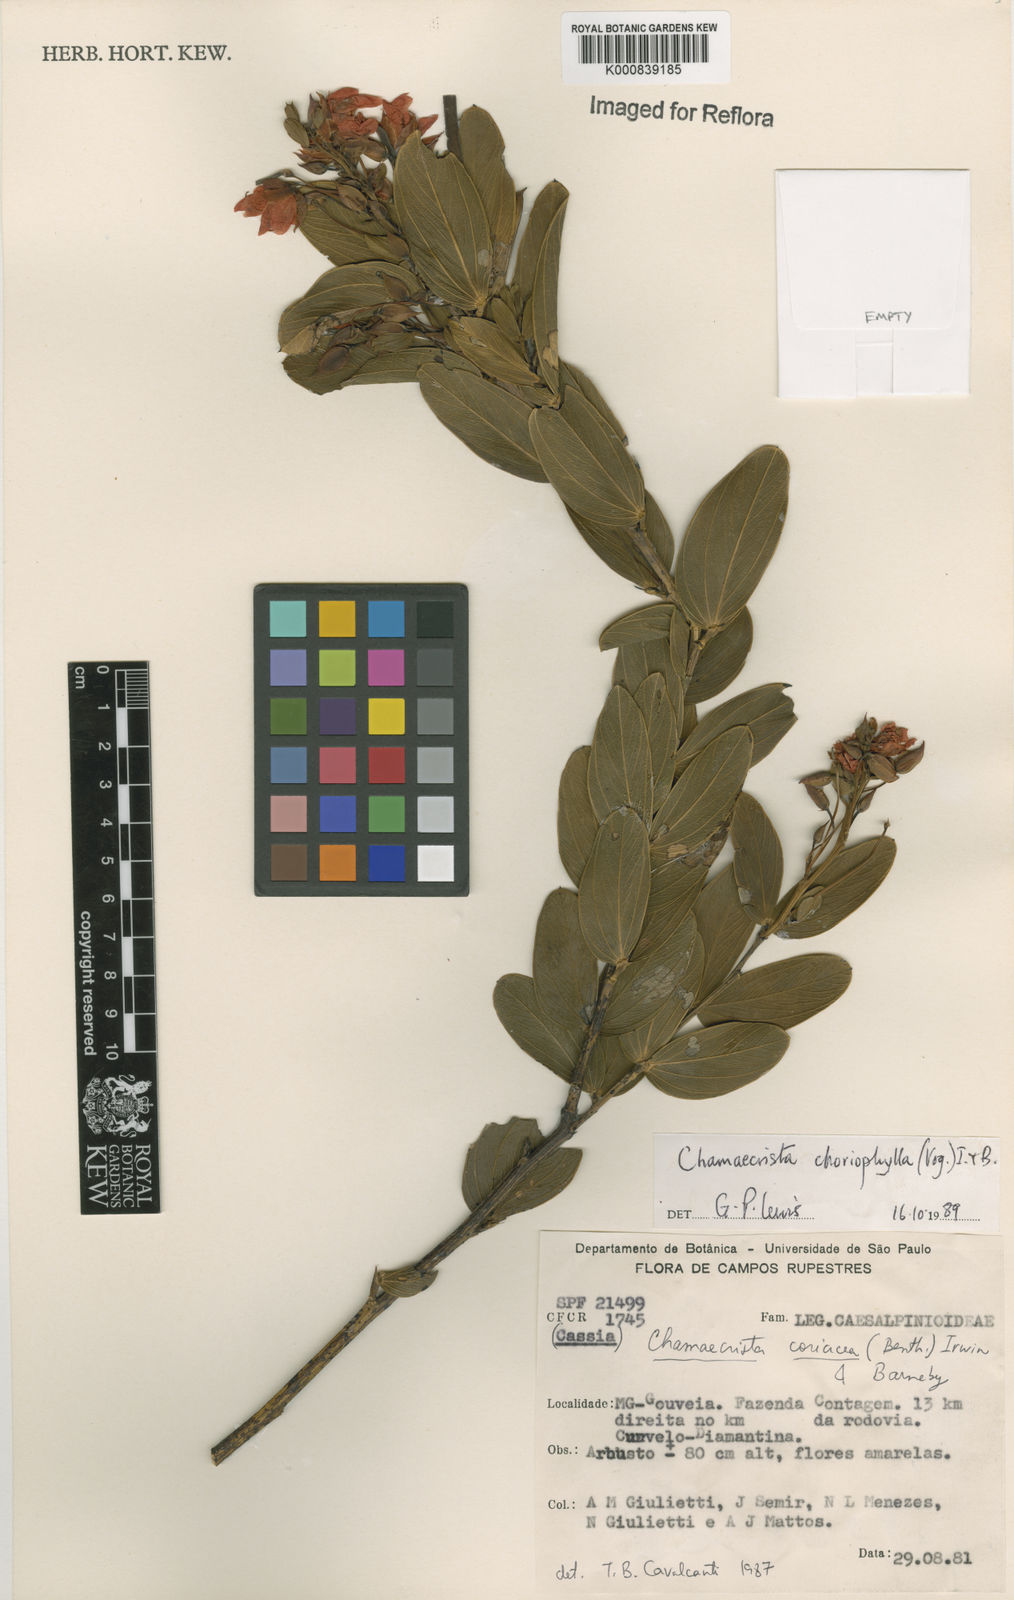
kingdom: Plantae
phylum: Tracheophyta
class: Magnoliopsida
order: Fabales
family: Fabaceae
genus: Chamaecrista
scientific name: Chamaecrista choriophylla
